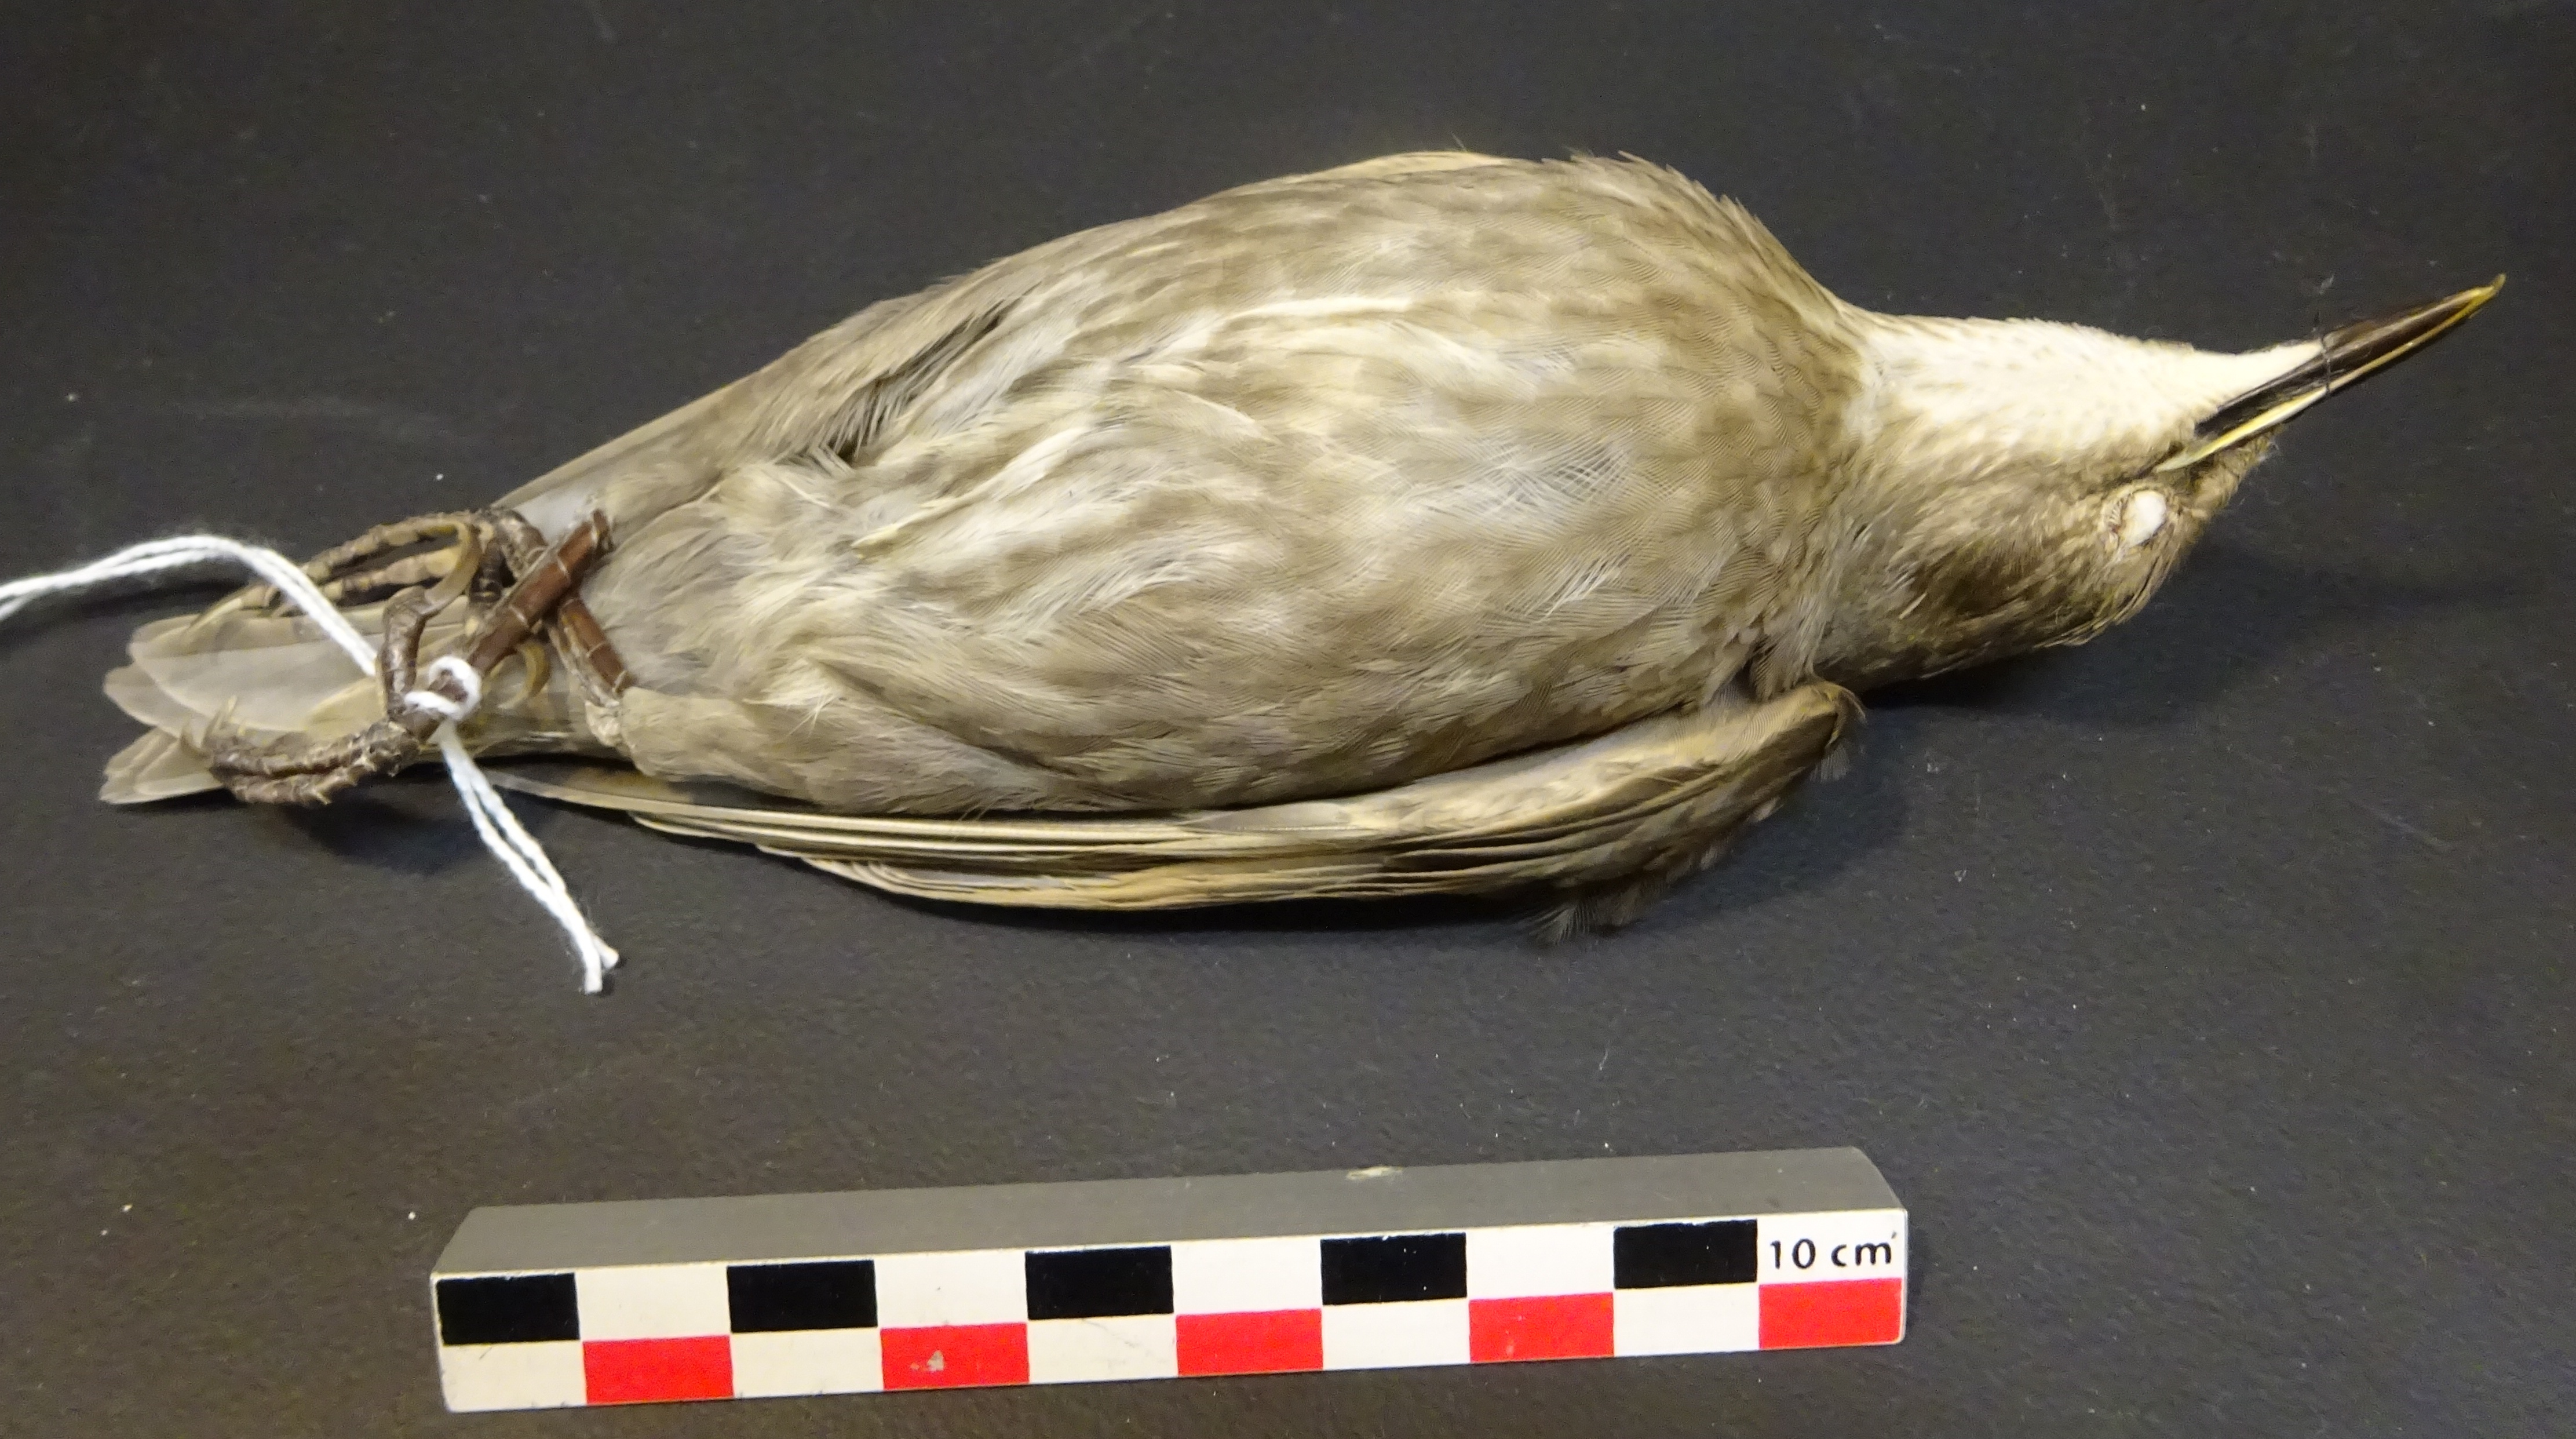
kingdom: Animalia
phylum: Chordata
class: Aves
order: Passeriformes
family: Sturnidae
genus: Sturnus
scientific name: Sturnus vulgaris
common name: Common starling
